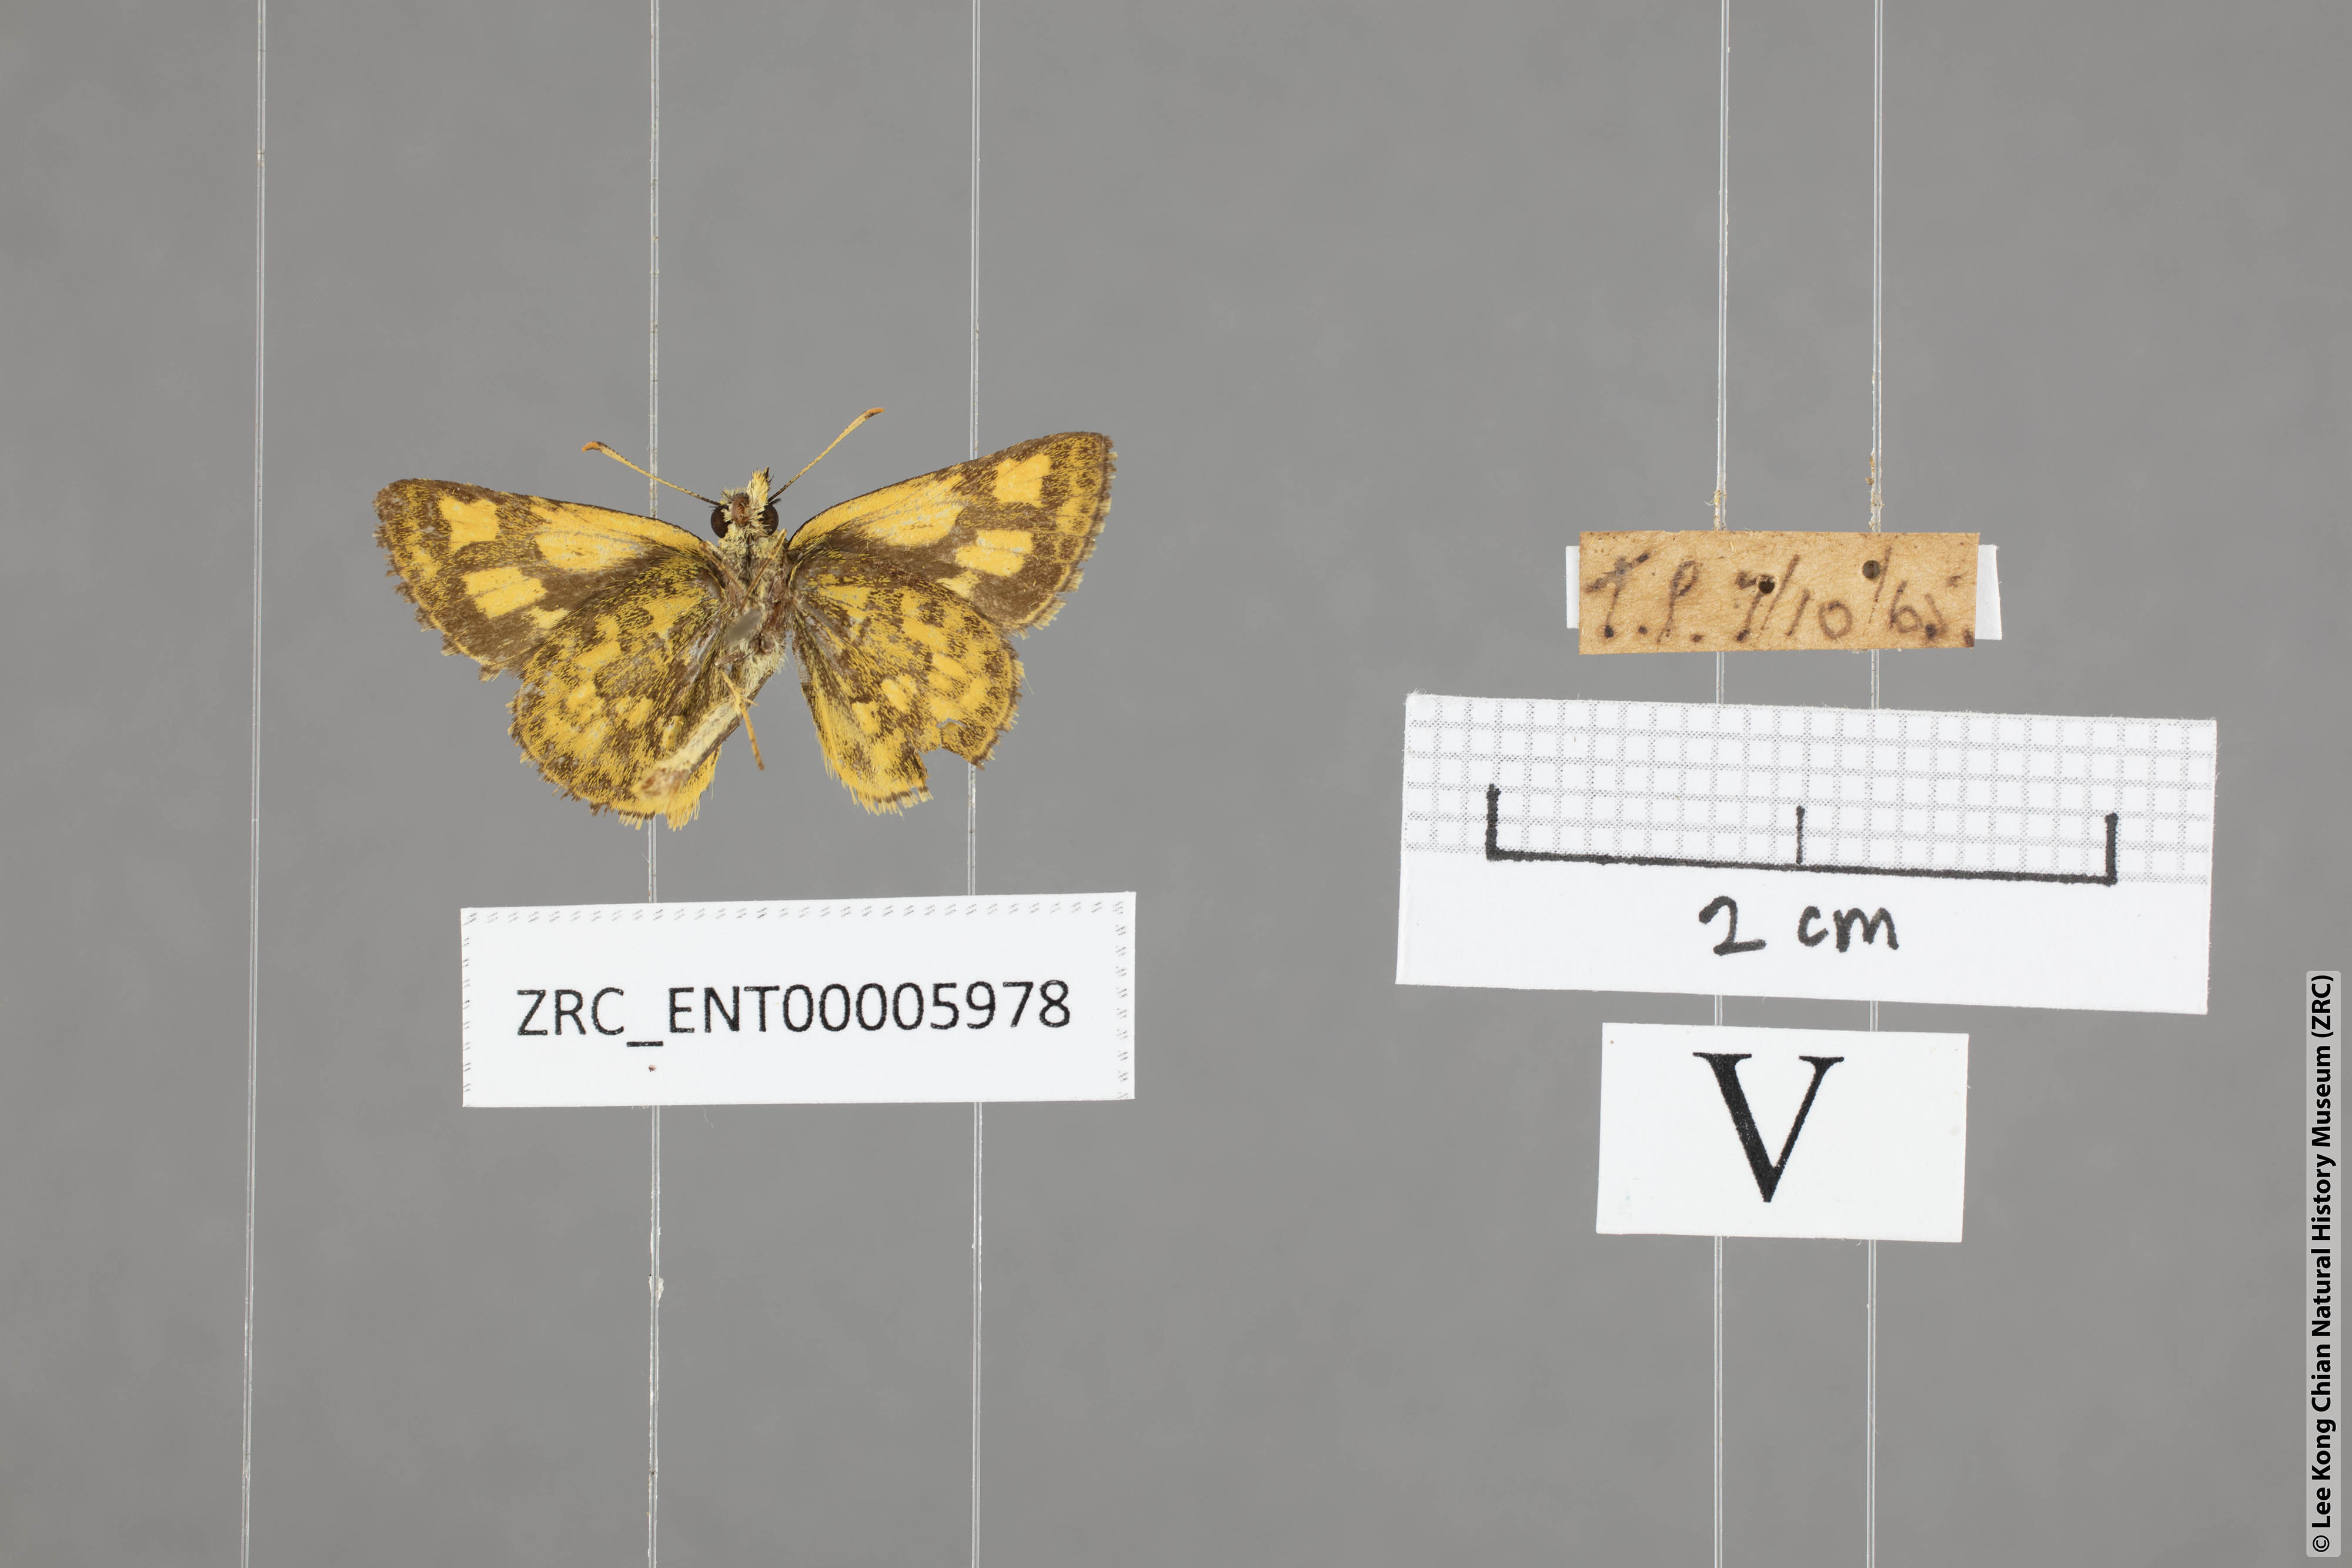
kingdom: Animalia
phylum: Arthropoda
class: Insecta
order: Lepidoptera
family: Hesperiidae
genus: Ampittia
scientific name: Ampittia dioscorides
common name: Common bush hopper
